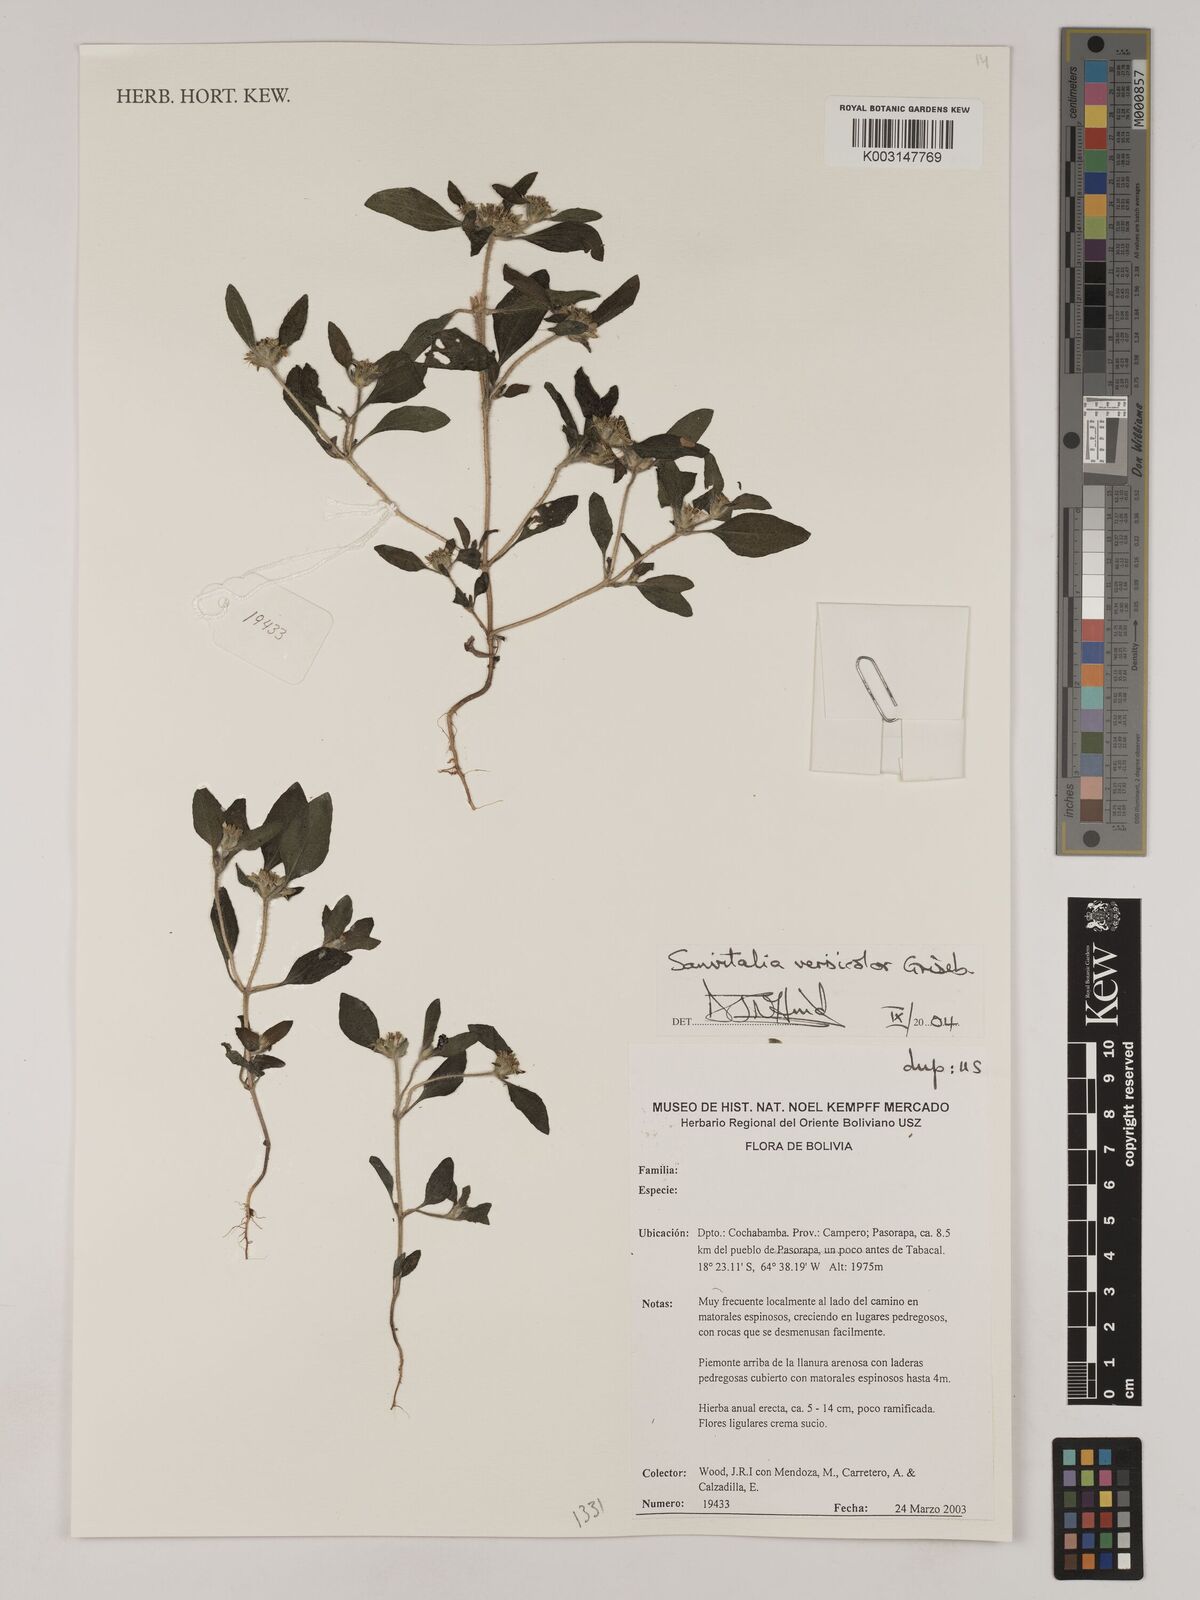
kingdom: Plantae
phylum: Tracheophyta
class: Magnoliopsida
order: Asterales
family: Asteraceae
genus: Sanvitalia
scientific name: Sanvitalia versicolor
